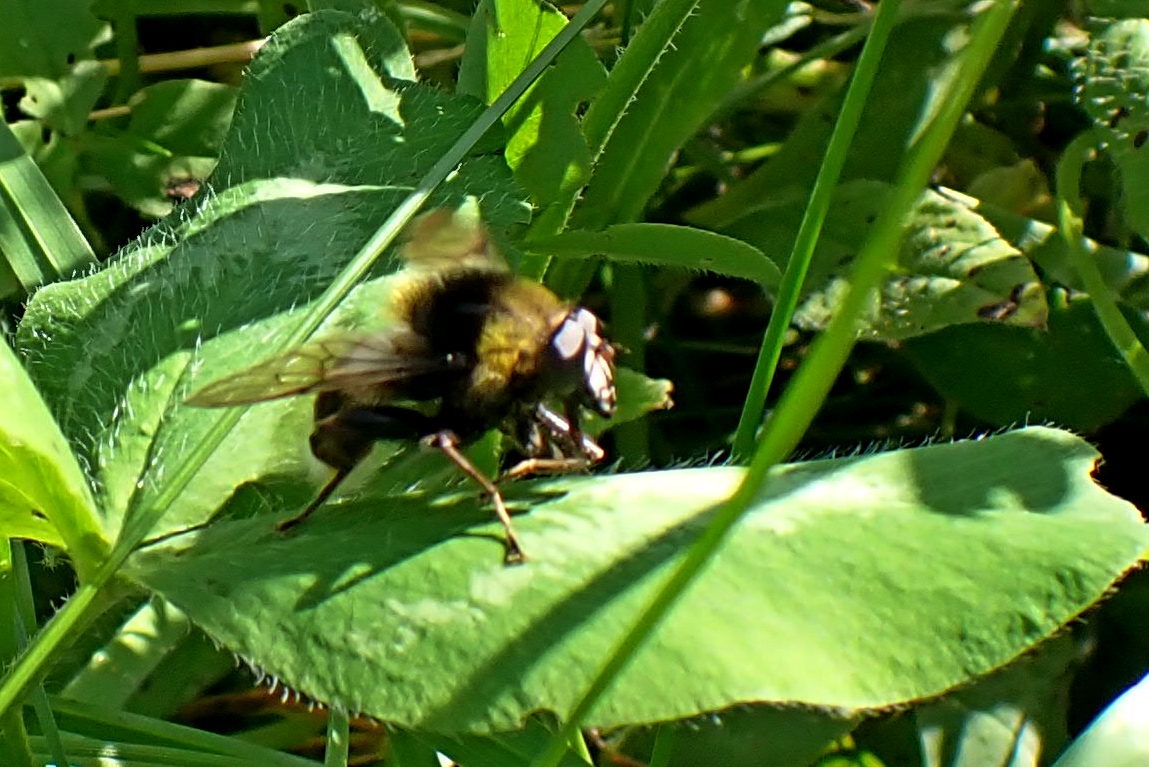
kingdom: Animalia
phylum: Arthropoda
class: Insecta
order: Diptera
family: Syrphidae
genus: Sericomyia
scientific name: Sericomyia bombiformis
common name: Gul bjørnesvirreflue
